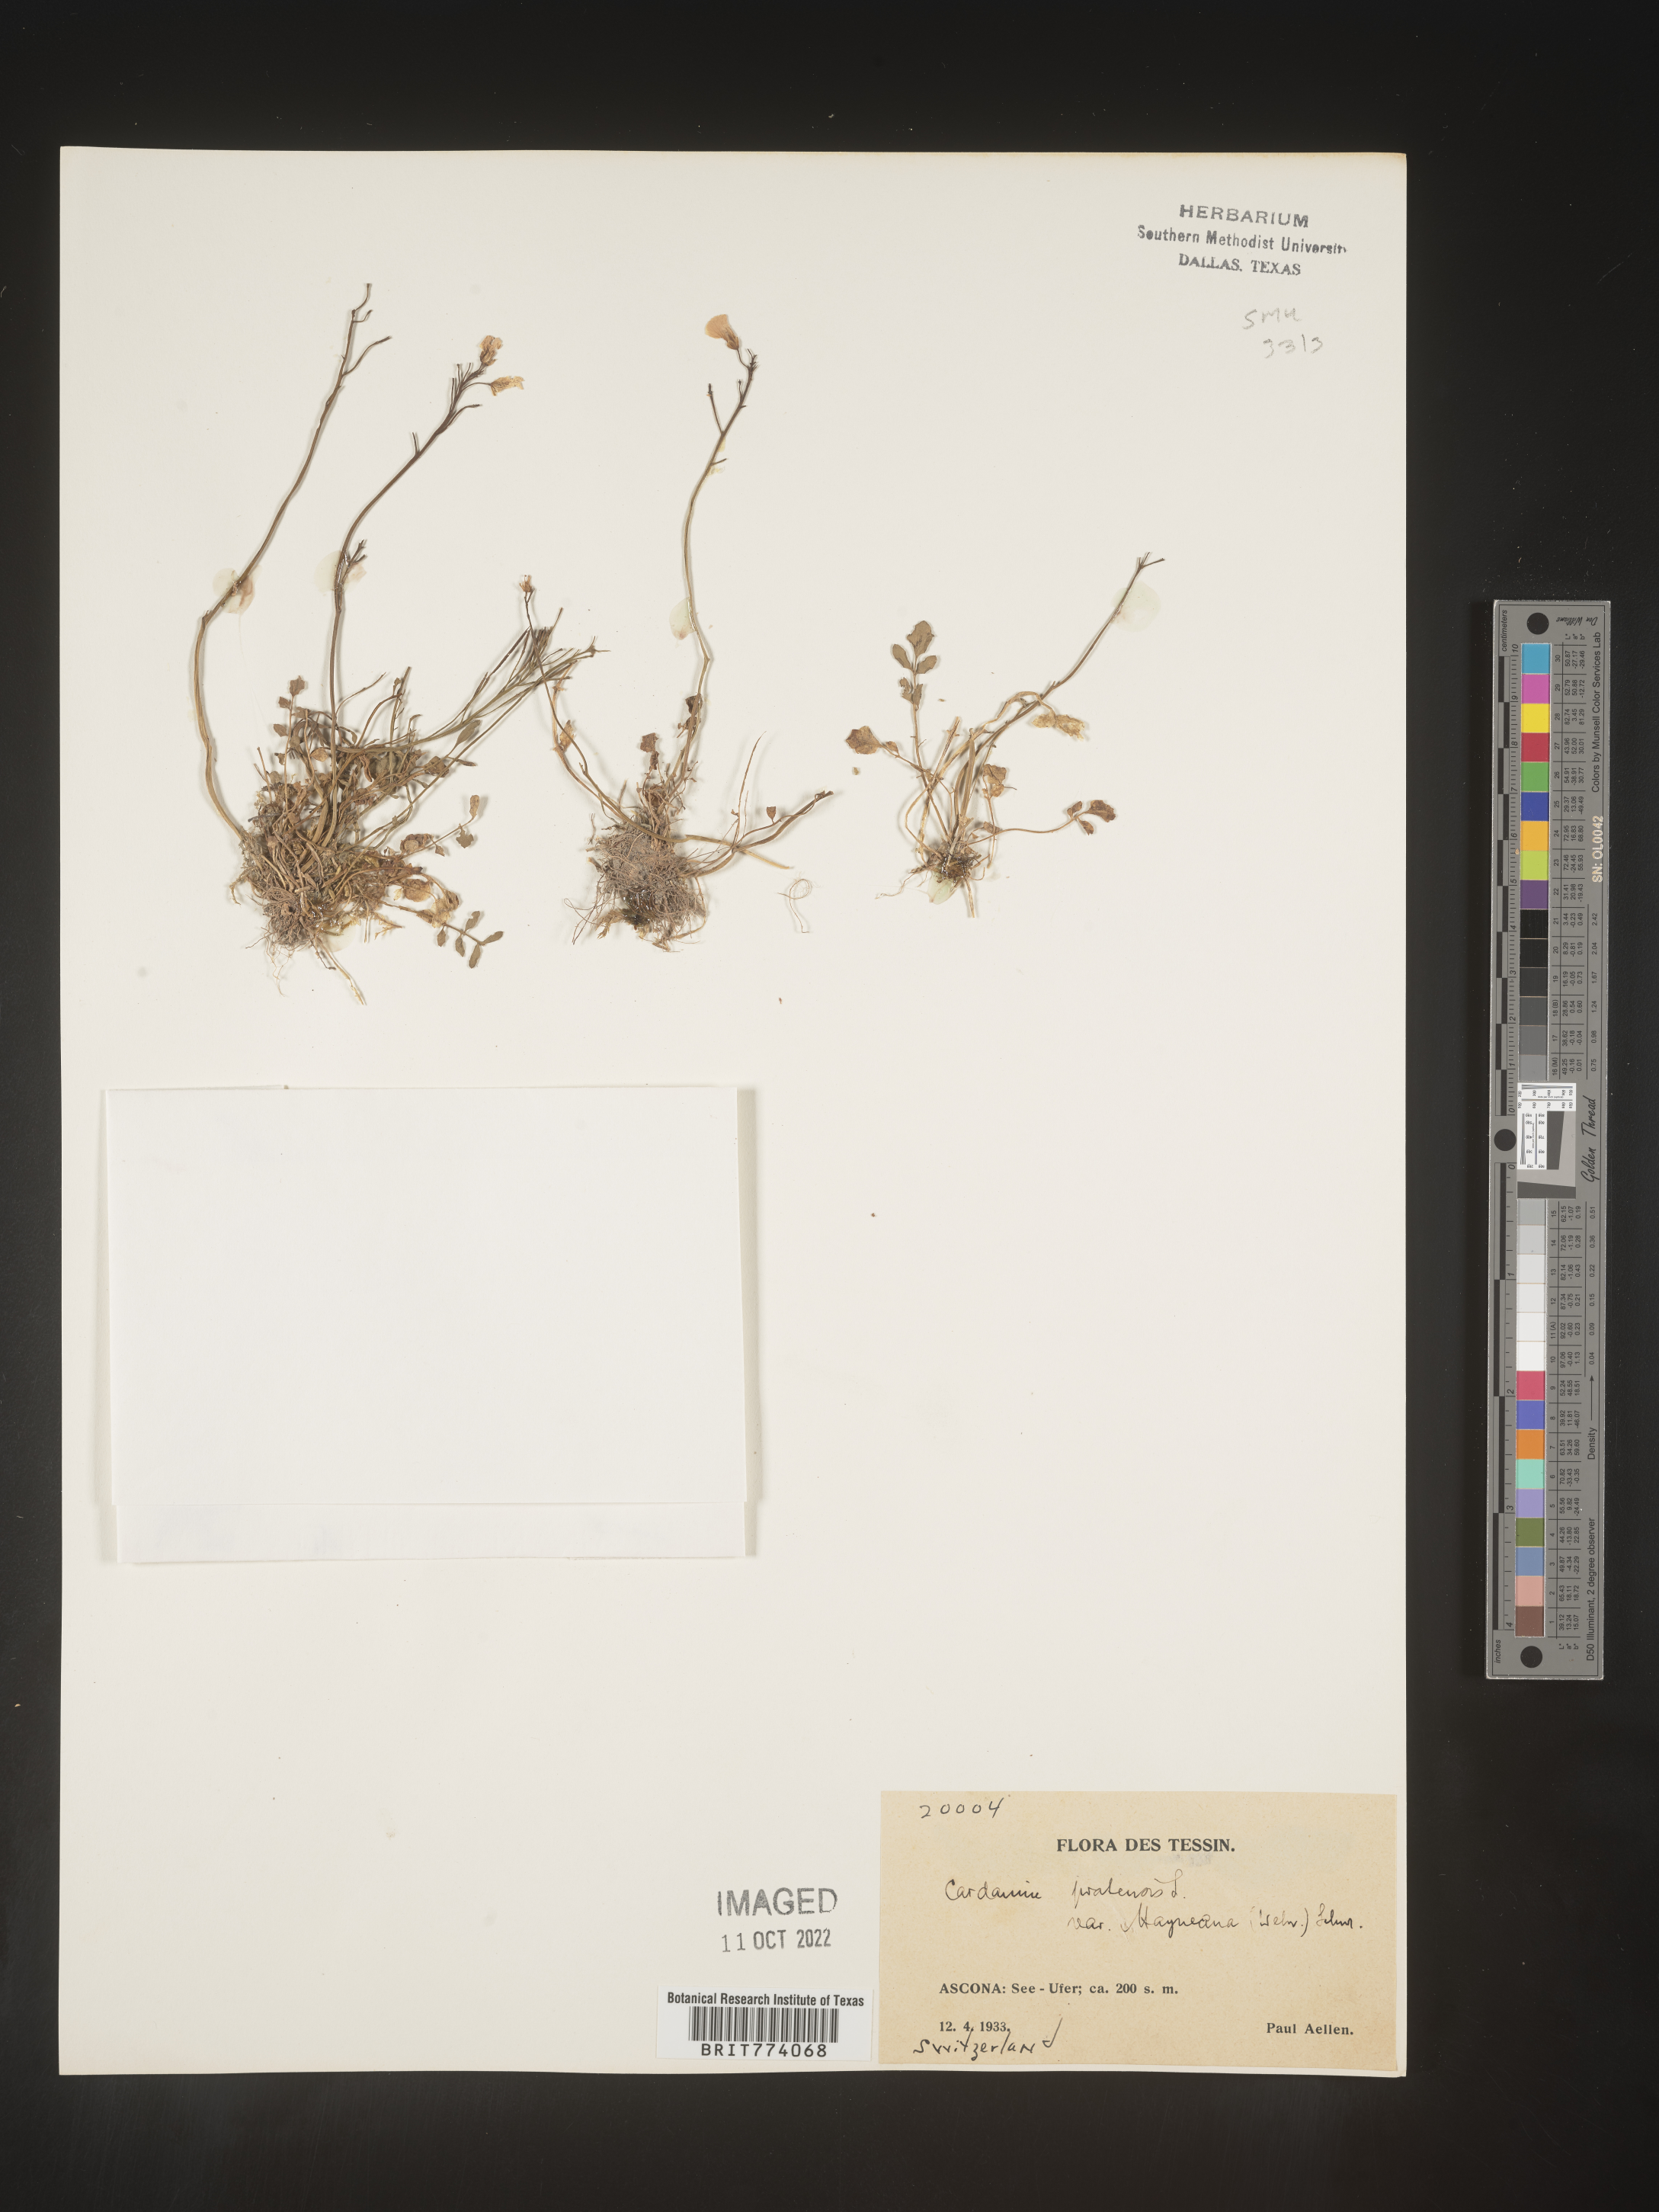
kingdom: Plantae
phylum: Tracheophyta
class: Magnoliopsida
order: Brassicales
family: Brassicaceae
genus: Cardamine
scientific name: Cardamine pratensis
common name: Cuckoo flower
